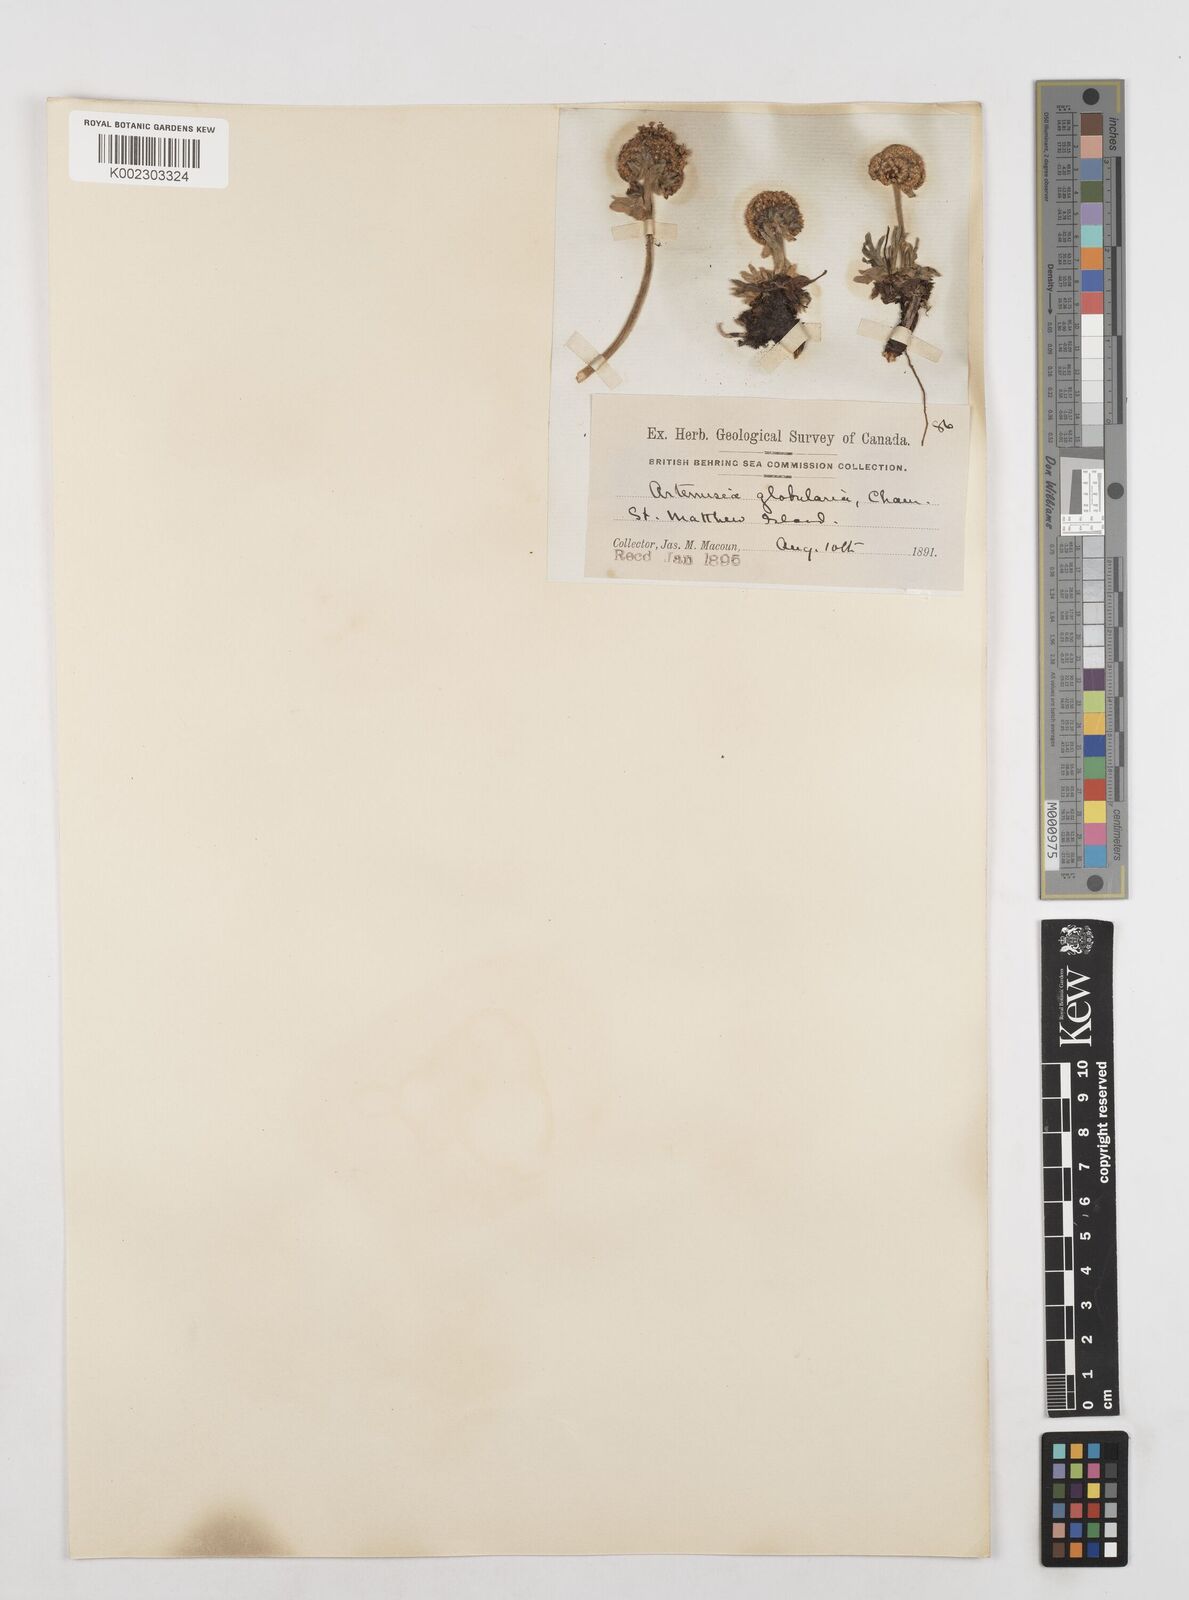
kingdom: Plantae
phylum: Tracheophyta
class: Magnoliopsida
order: Asterales
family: Asteraceae
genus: Artemisia
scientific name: Artemisia globularia
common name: Purple wormwood
